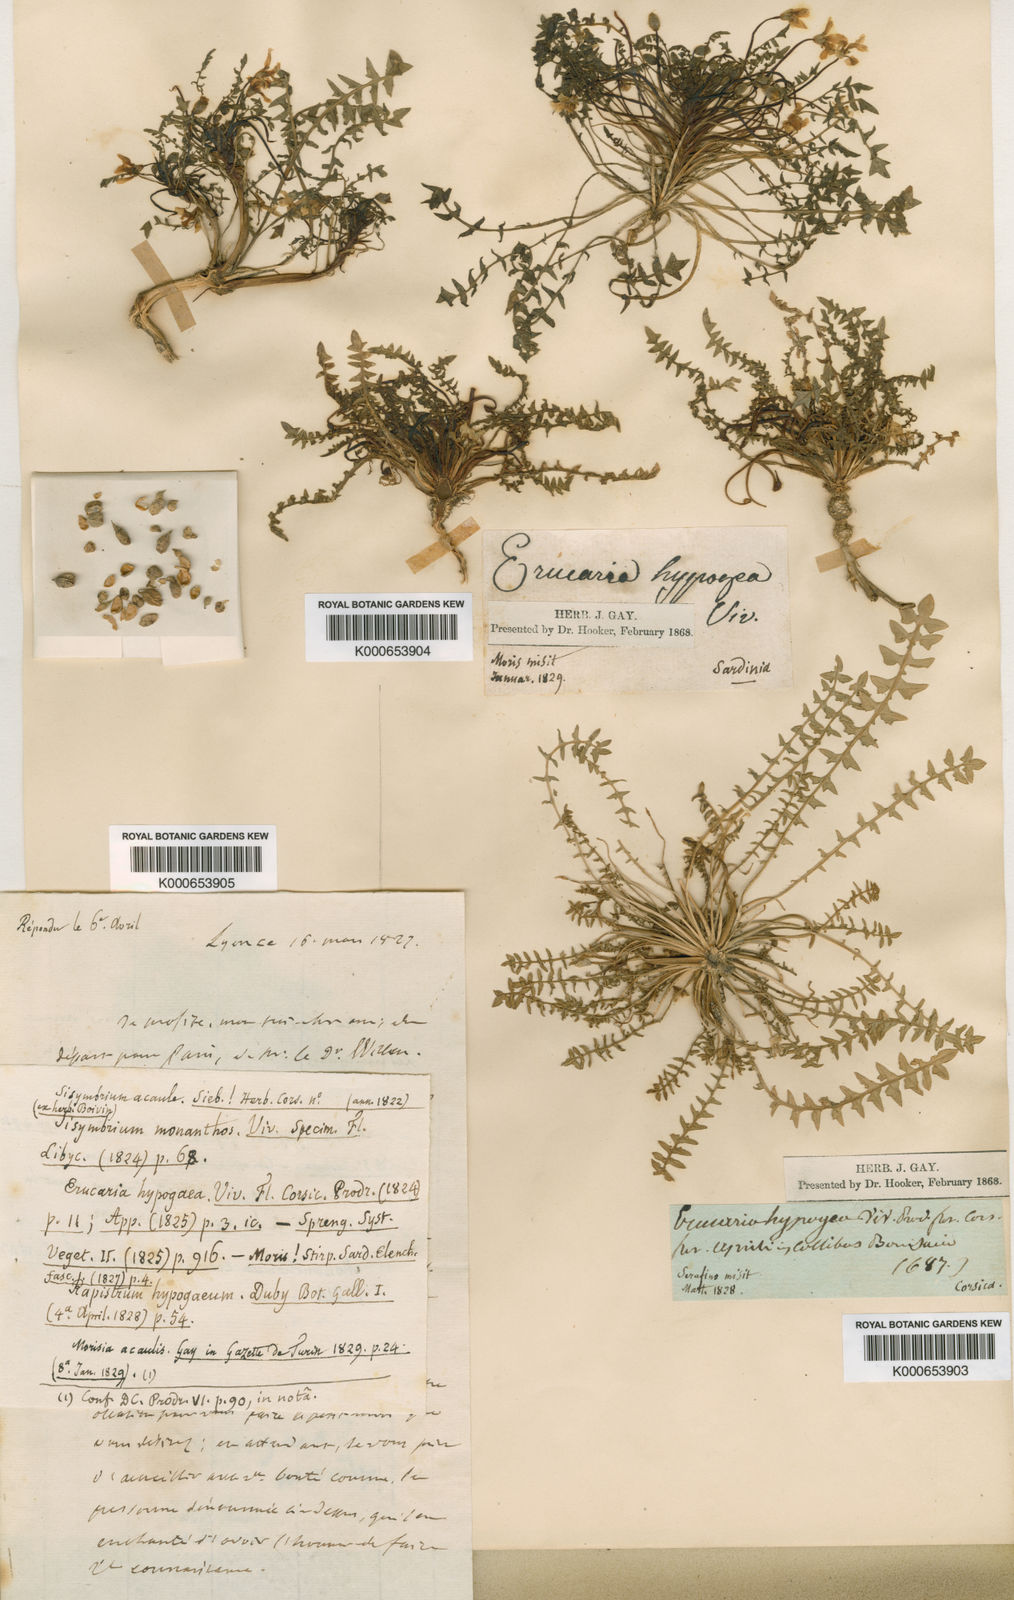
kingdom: Plantae
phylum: Tracheophyta
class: Magnoliopsida
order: Brassicales
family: Brassicaceae
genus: Morisia
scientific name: Morisia
